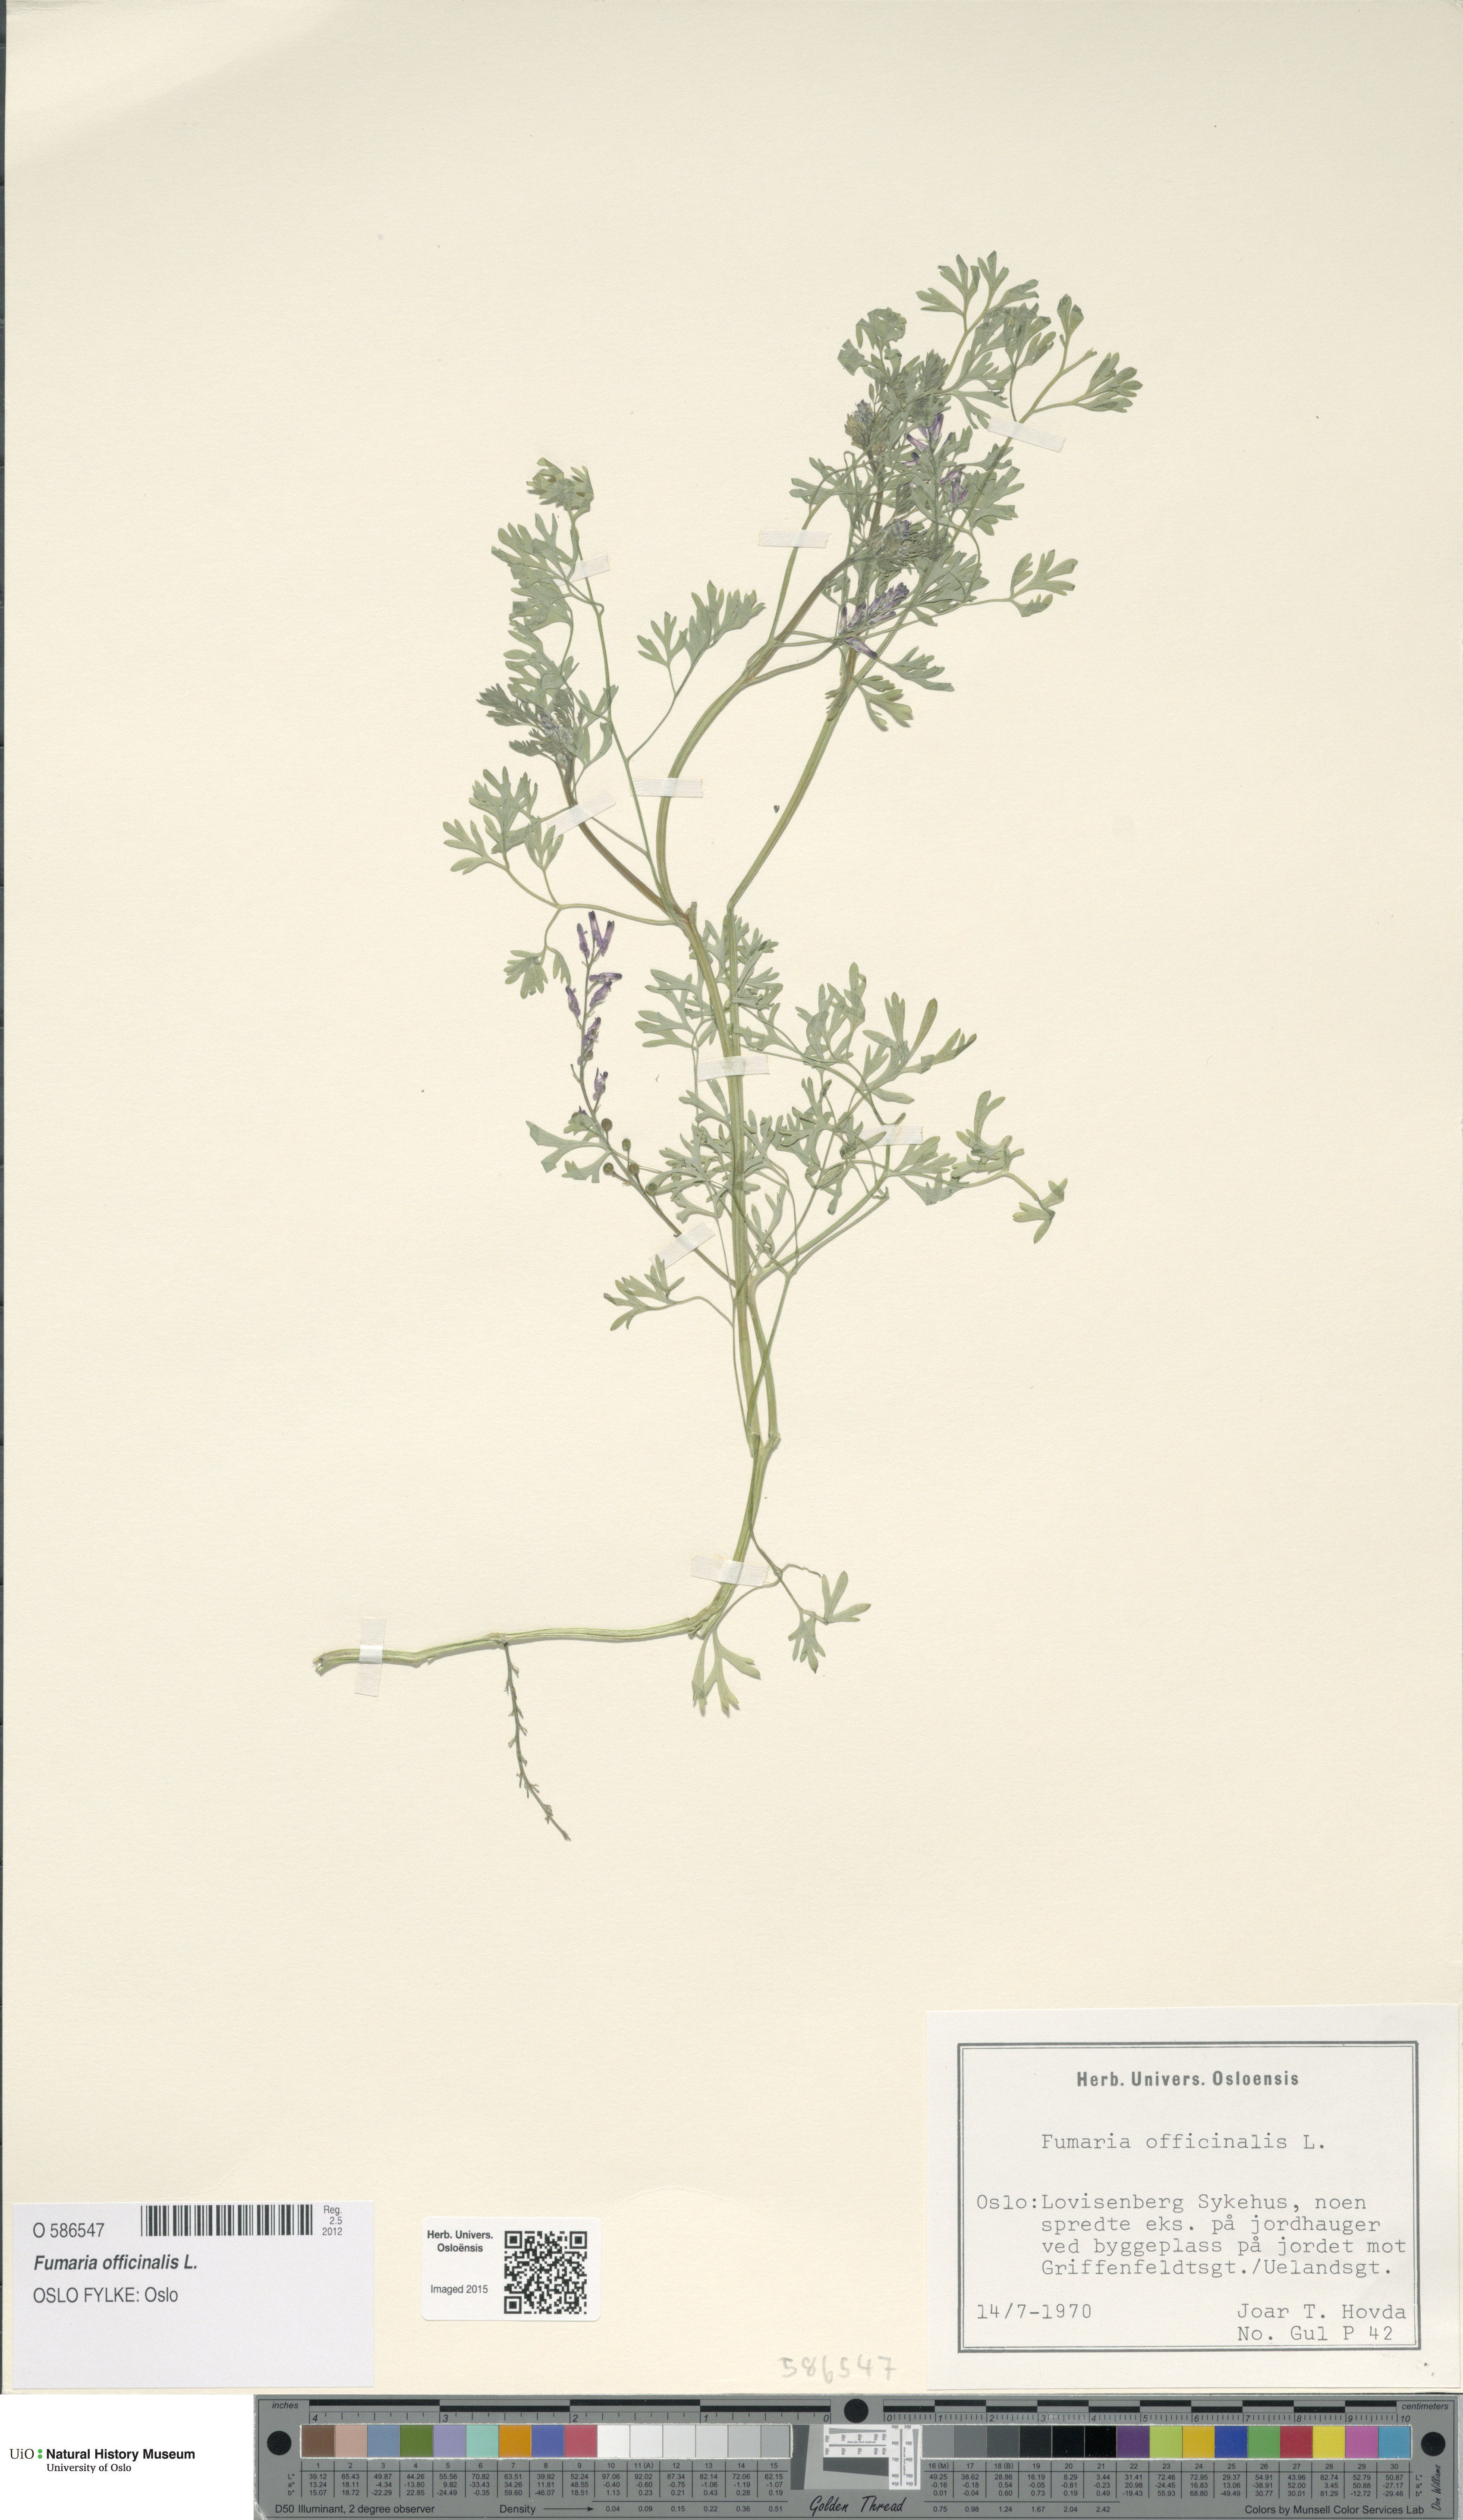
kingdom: Plantae
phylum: Tracheophyta
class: Magnoliopsida
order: Ranunculales
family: Papaveraceae
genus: Fumaria
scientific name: Fumaria officinalis
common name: Common fumitory
